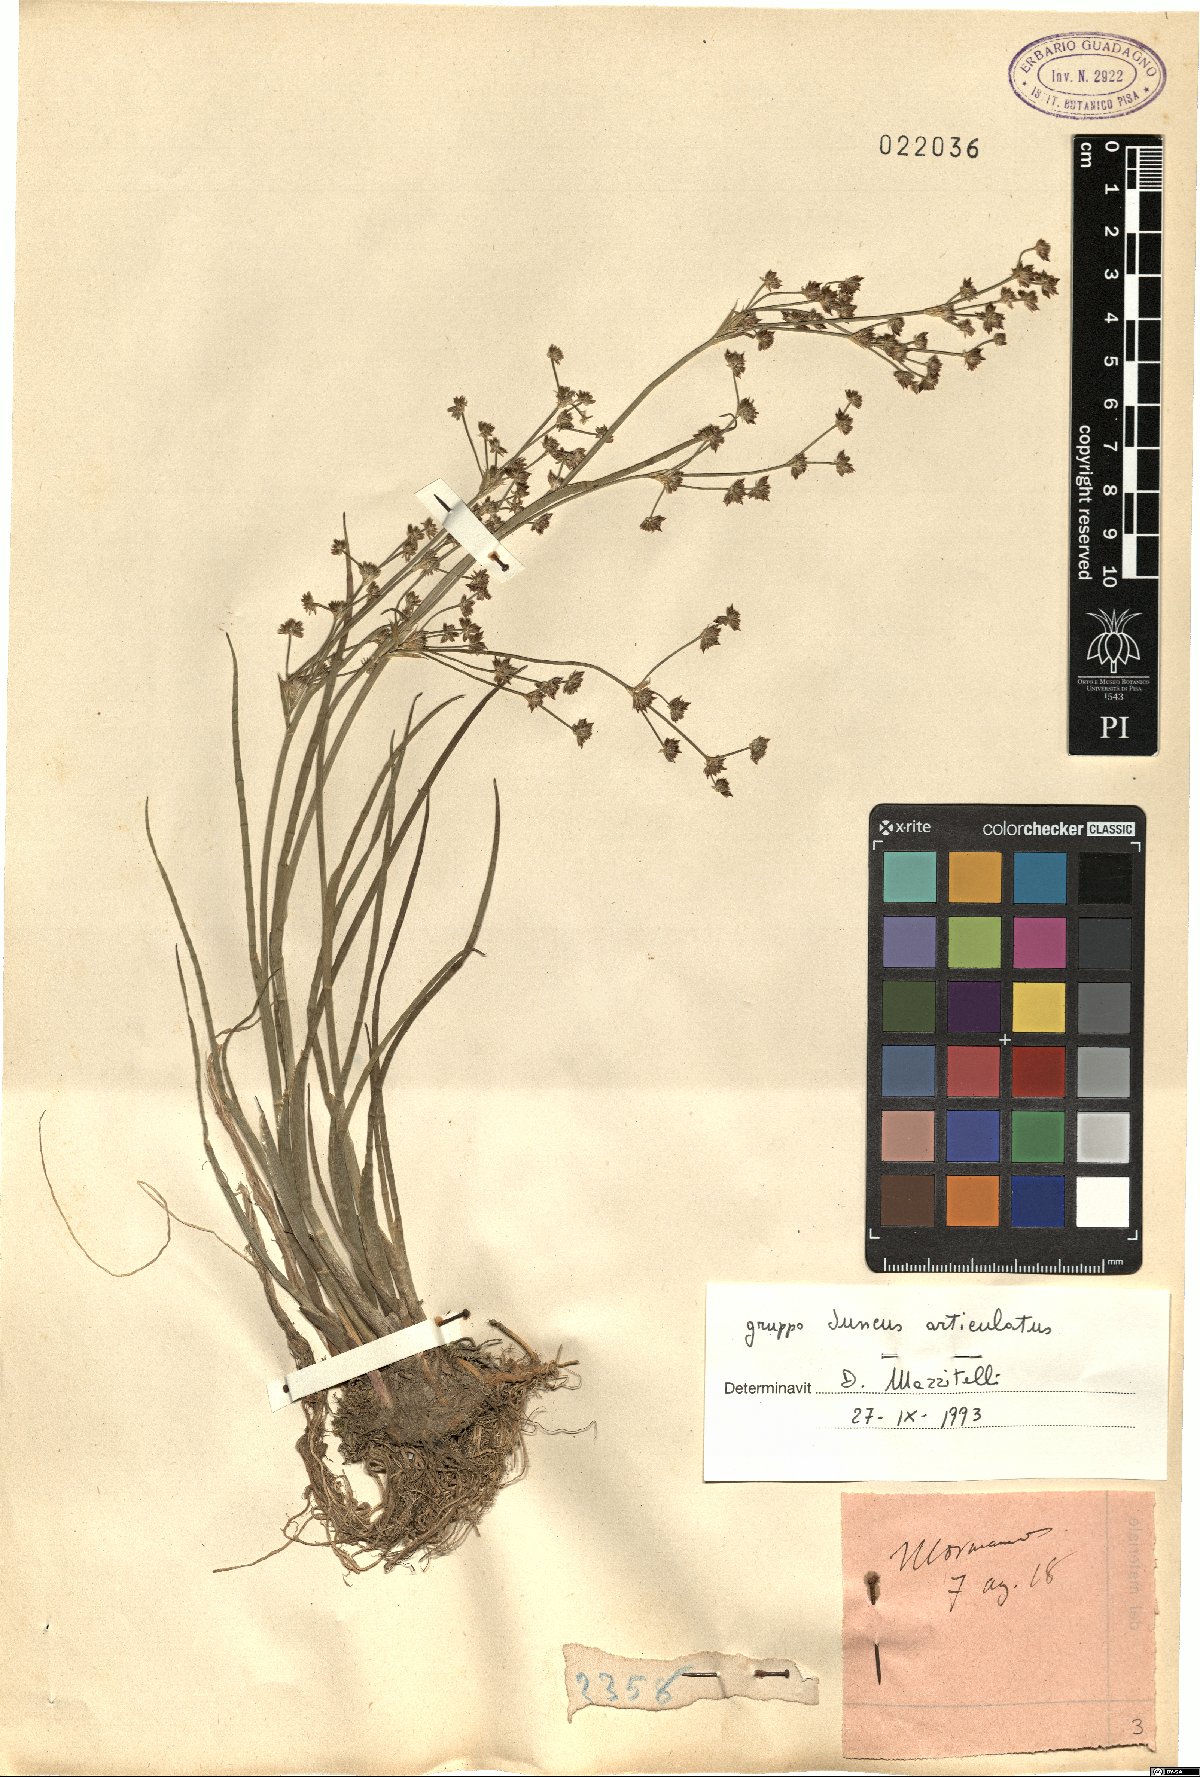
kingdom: Plantae
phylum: Tracheophyta
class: Liliopsida
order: Poales
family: Juncaceae
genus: Juncus
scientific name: Juncus articulatus
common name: Jointed rush
